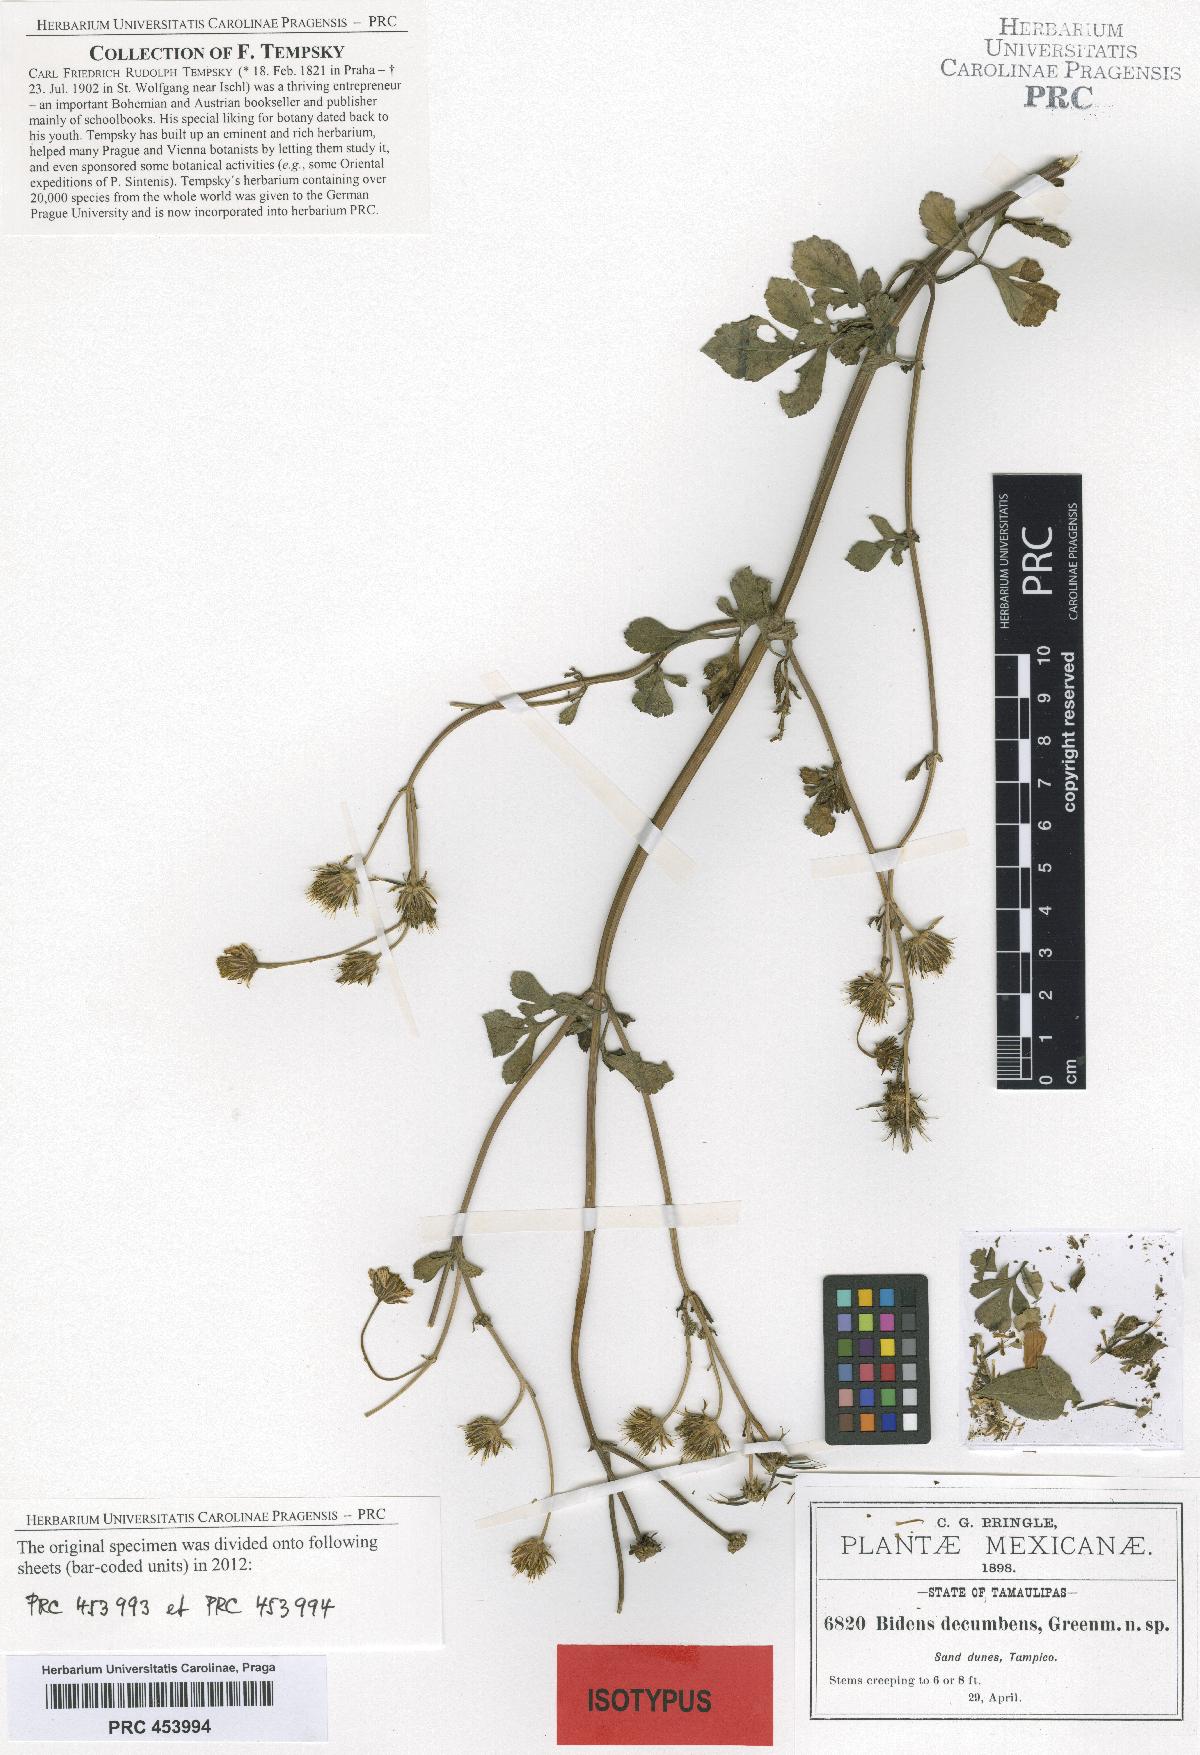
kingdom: Plantae
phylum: Tracheophyta
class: Magnoliopsida
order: Asterales
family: Asteraceae
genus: Bidens
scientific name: Bidens alba
